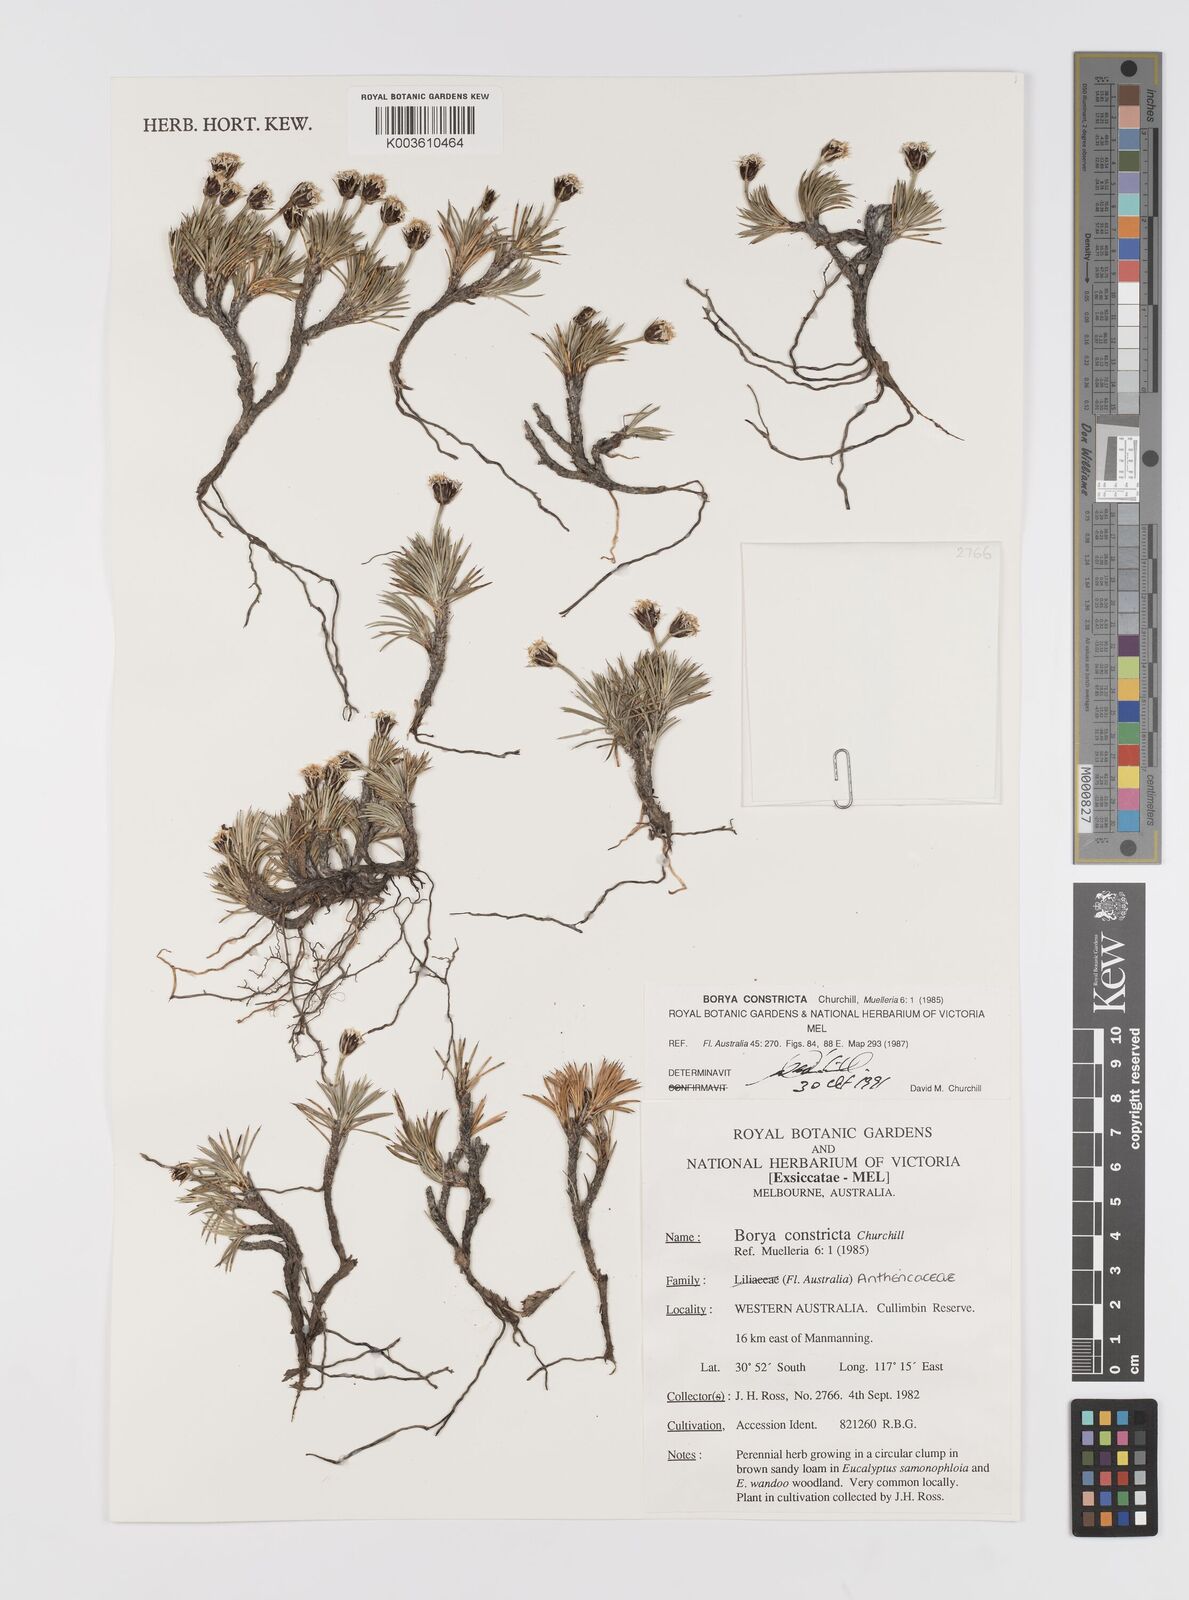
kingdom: Plantae
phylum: Tracheophyta
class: Liliopsida
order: Asparagales
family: Boryaceae
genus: Borya
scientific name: Borya constricta
